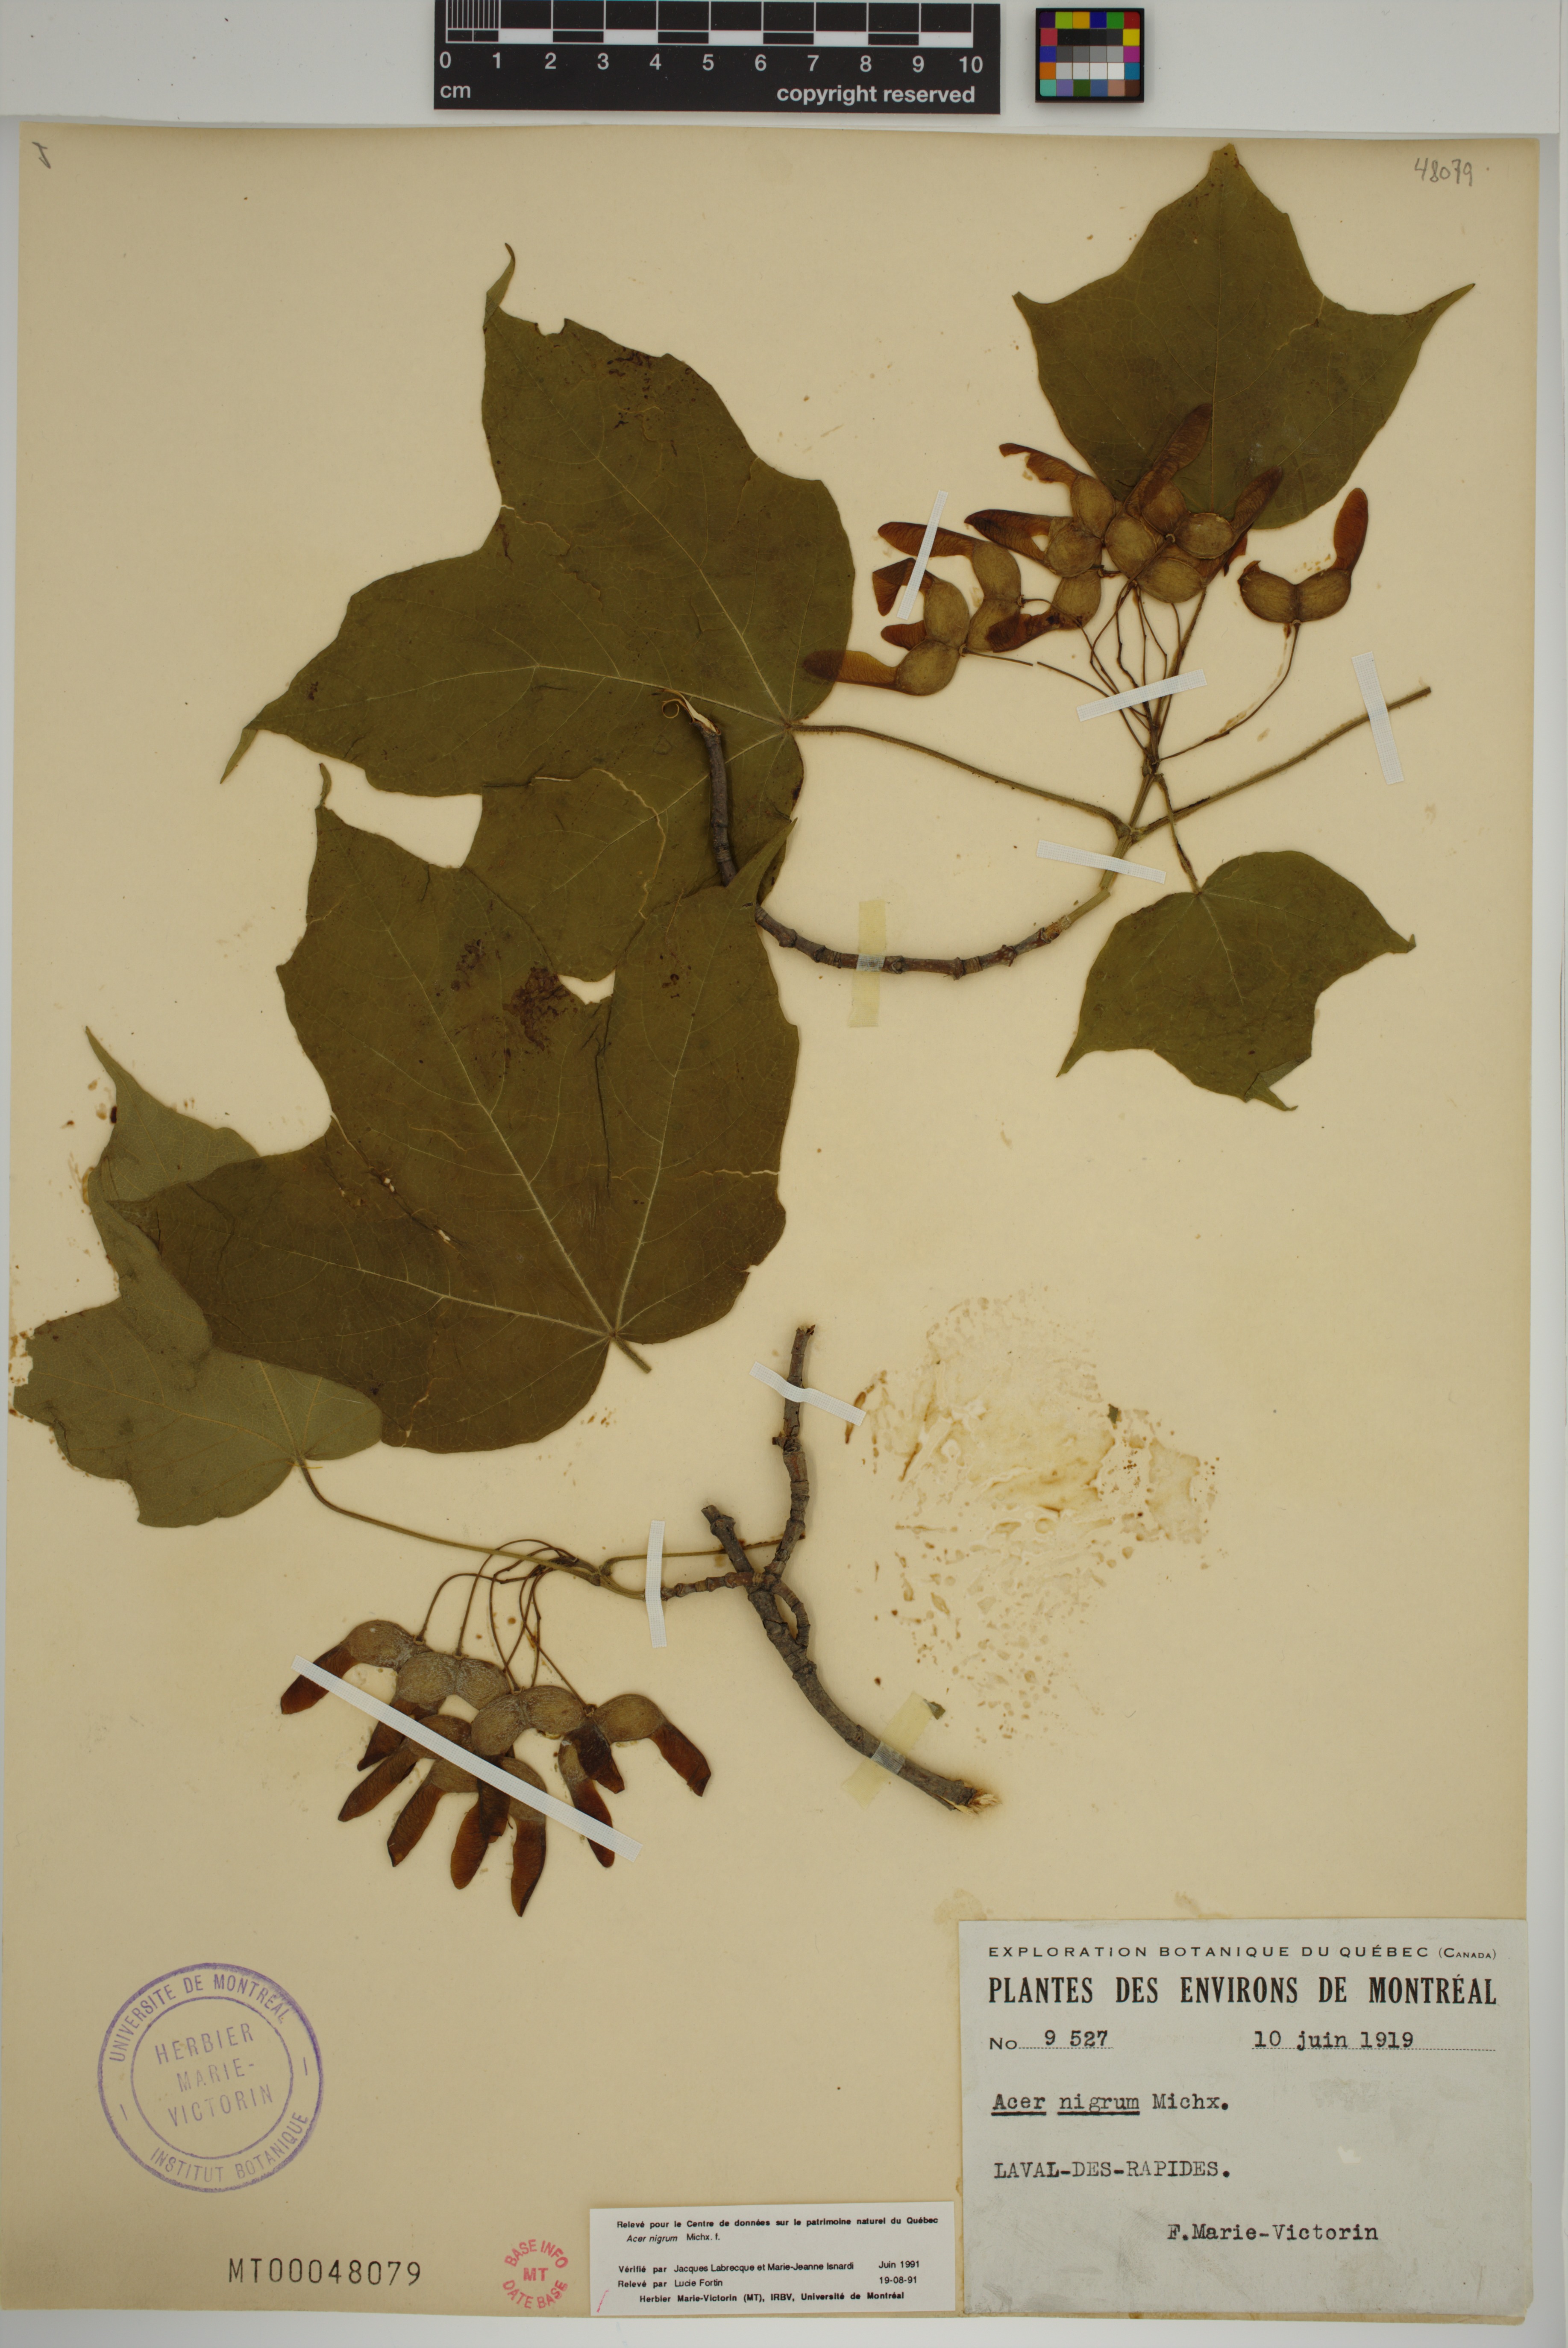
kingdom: Plantae
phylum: Tracheophyta
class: Magnoliopsida
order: Sapindales
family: Sapindaceae
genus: Acer
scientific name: Acer nigrum
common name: Black maple
